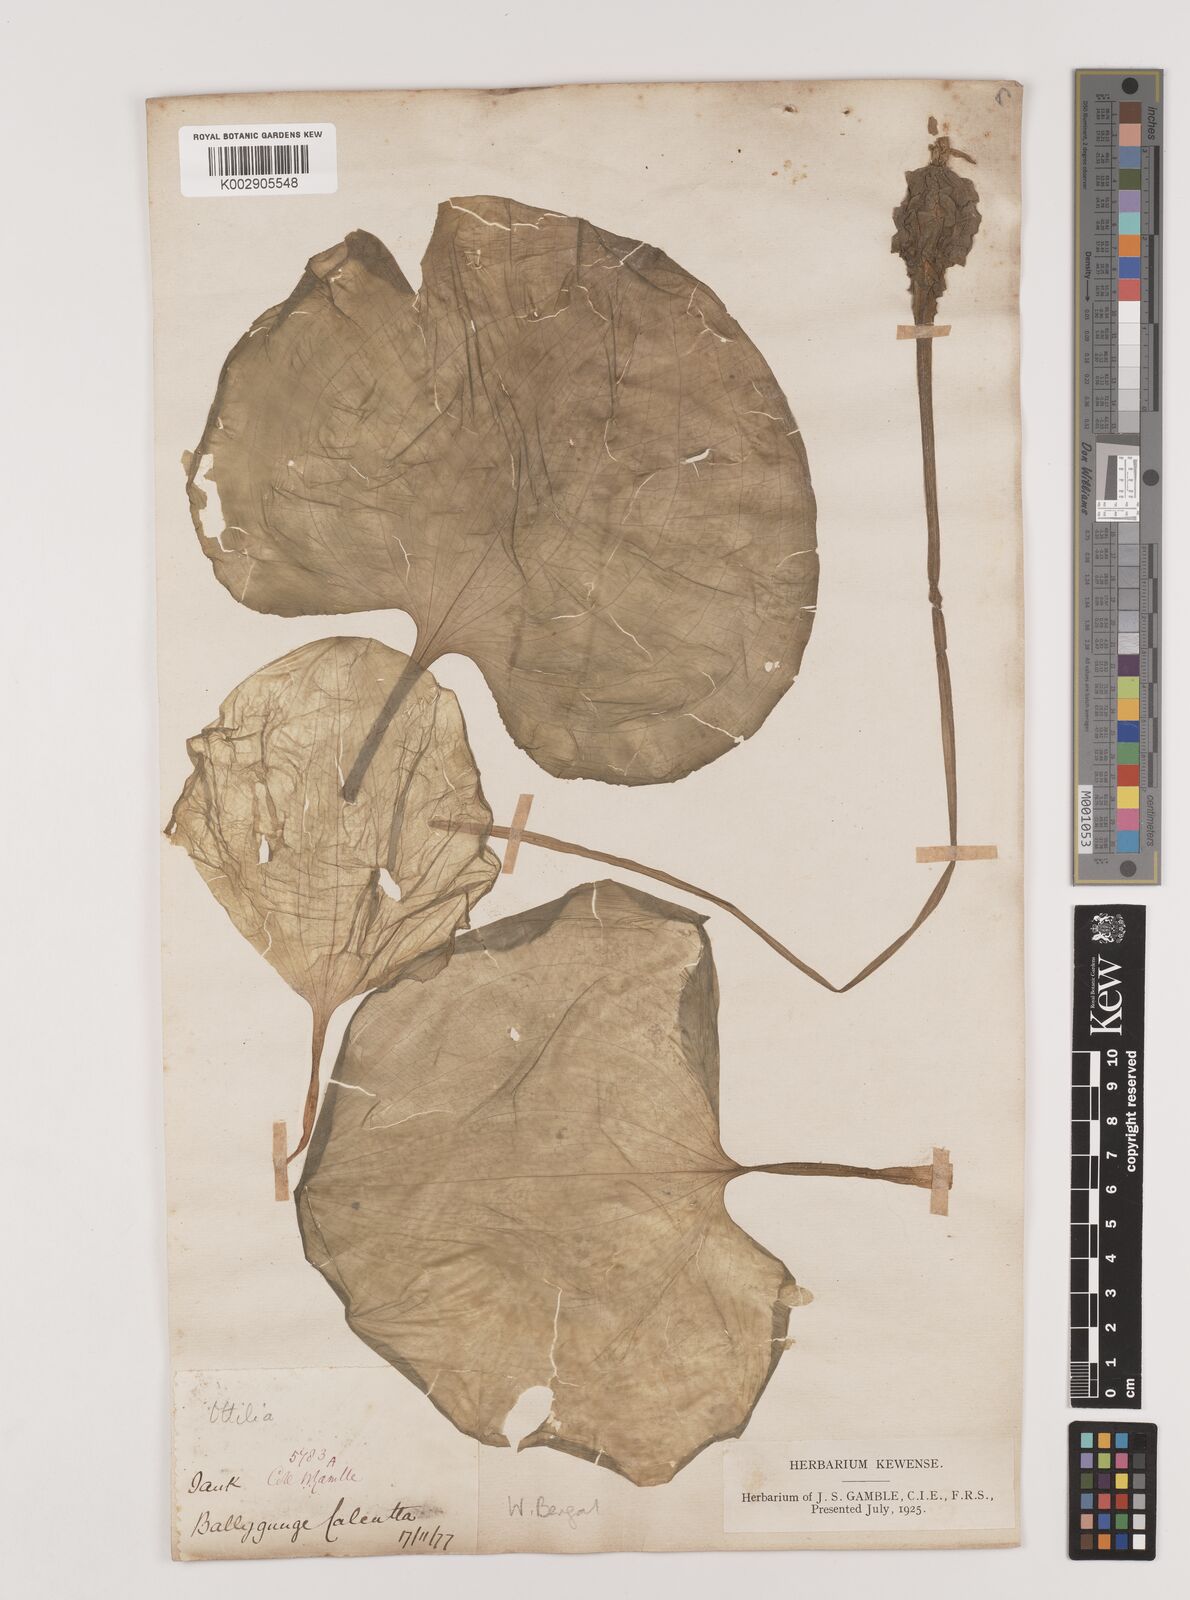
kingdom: Plantae
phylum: Tracheophyta
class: Liliopsida
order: Alismatales
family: Hydrocharitaceae
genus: Ottelia
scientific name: Ottelia alismoides
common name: Duck-lettuce
